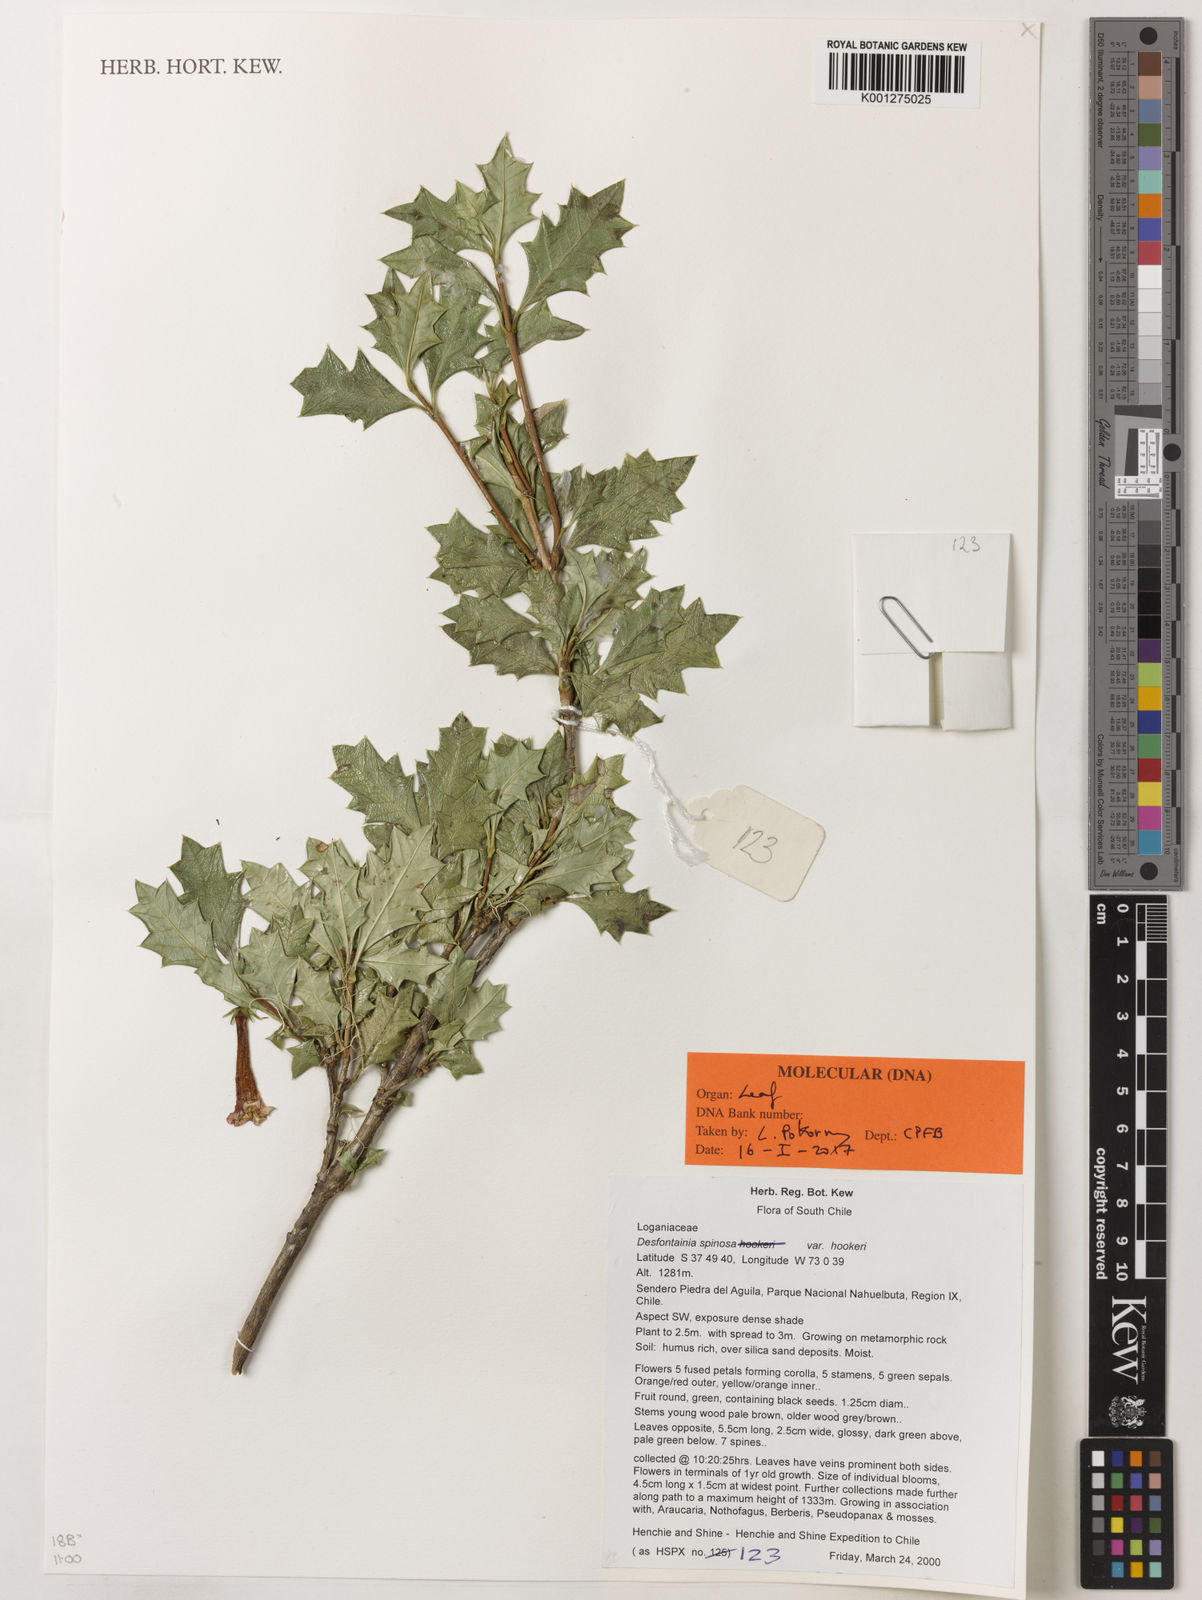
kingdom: Plantae
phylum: Tracheophyta
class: Magnoliopsida
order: Bruniales
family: Columelliaceae
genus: Desfontainia
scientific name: Desfontainia fulgens
